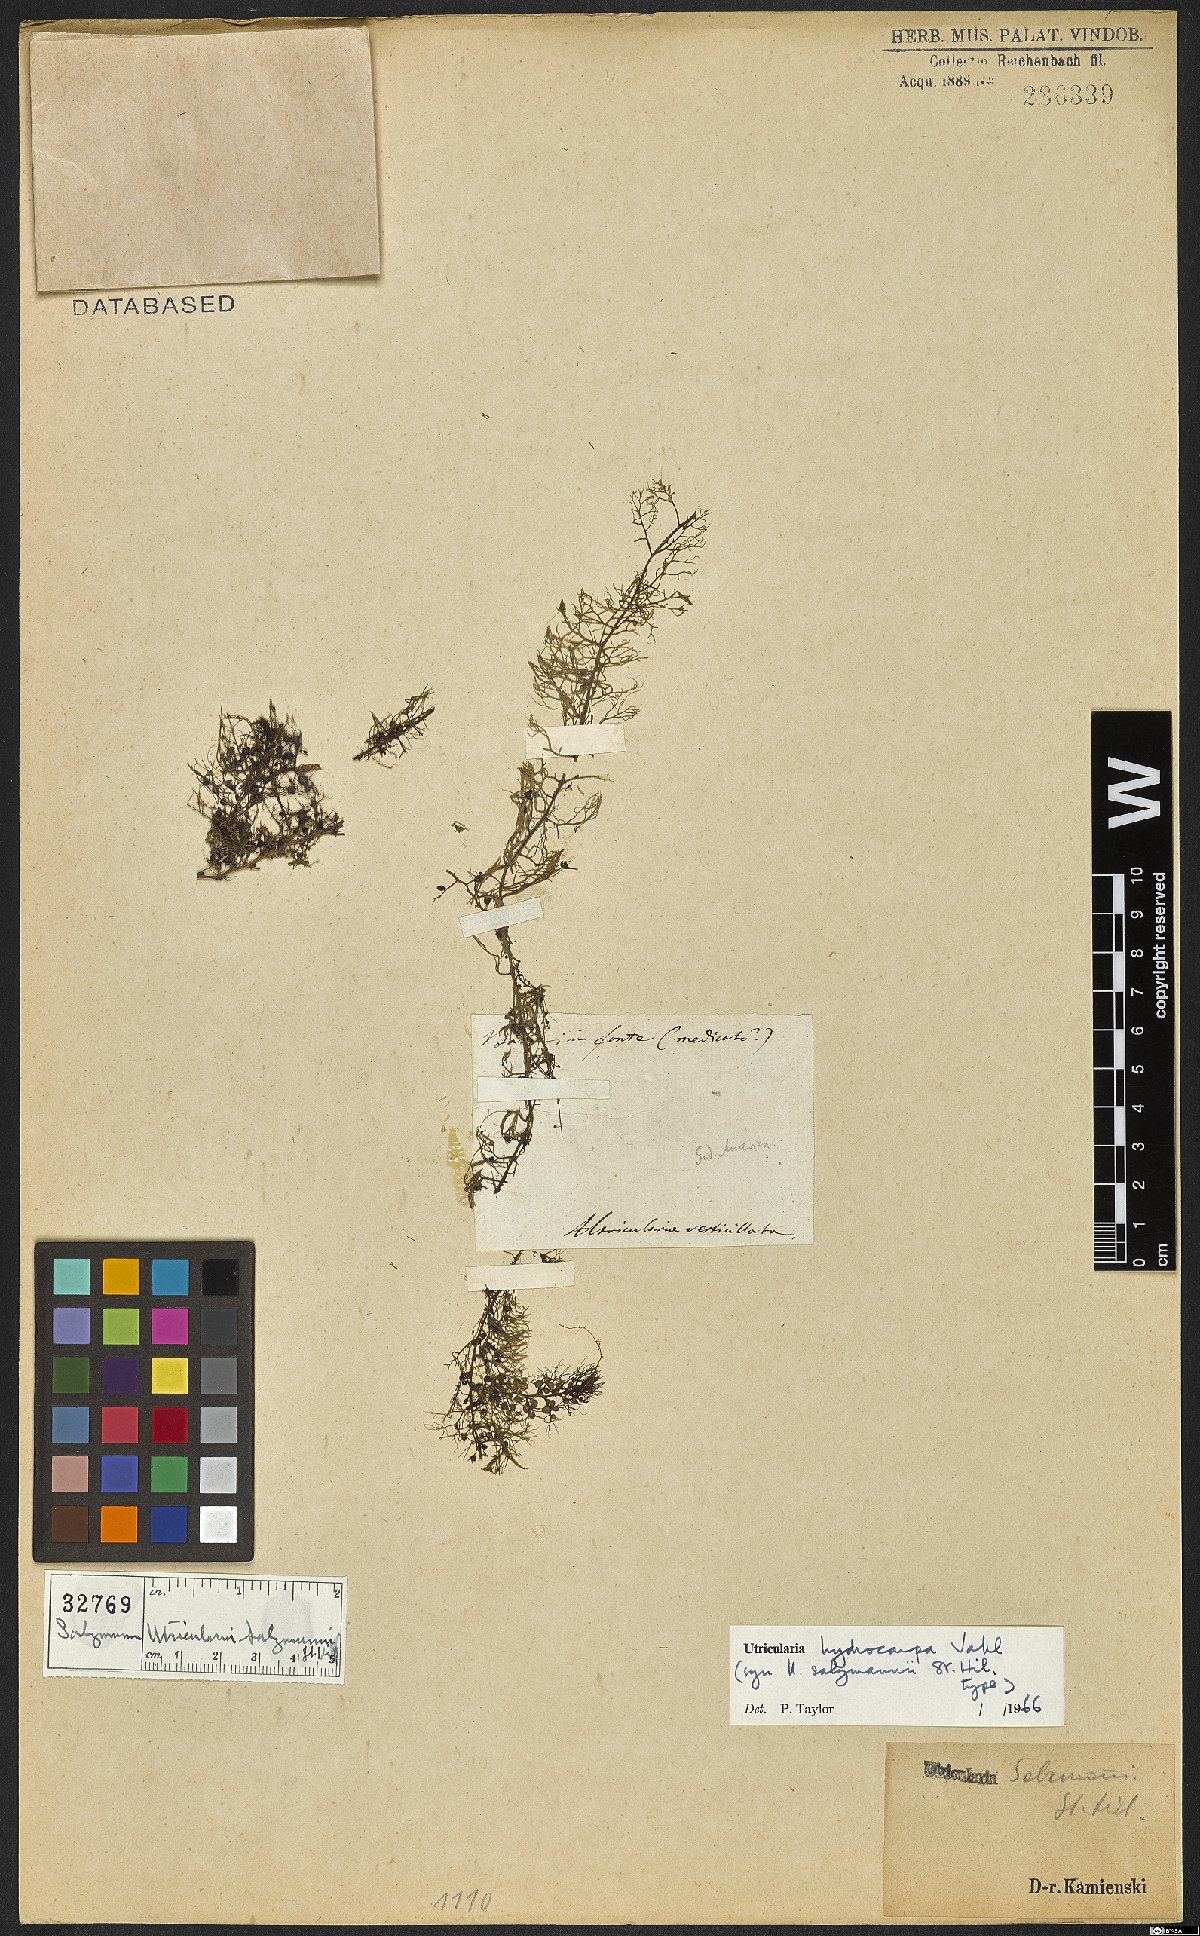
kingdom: Plantae
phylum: Tracheophyta
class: Magnoliopsida
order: Lamiales
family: Lentibulariaceae
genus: Utricularia
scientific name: Utricularia hydrocarpa
